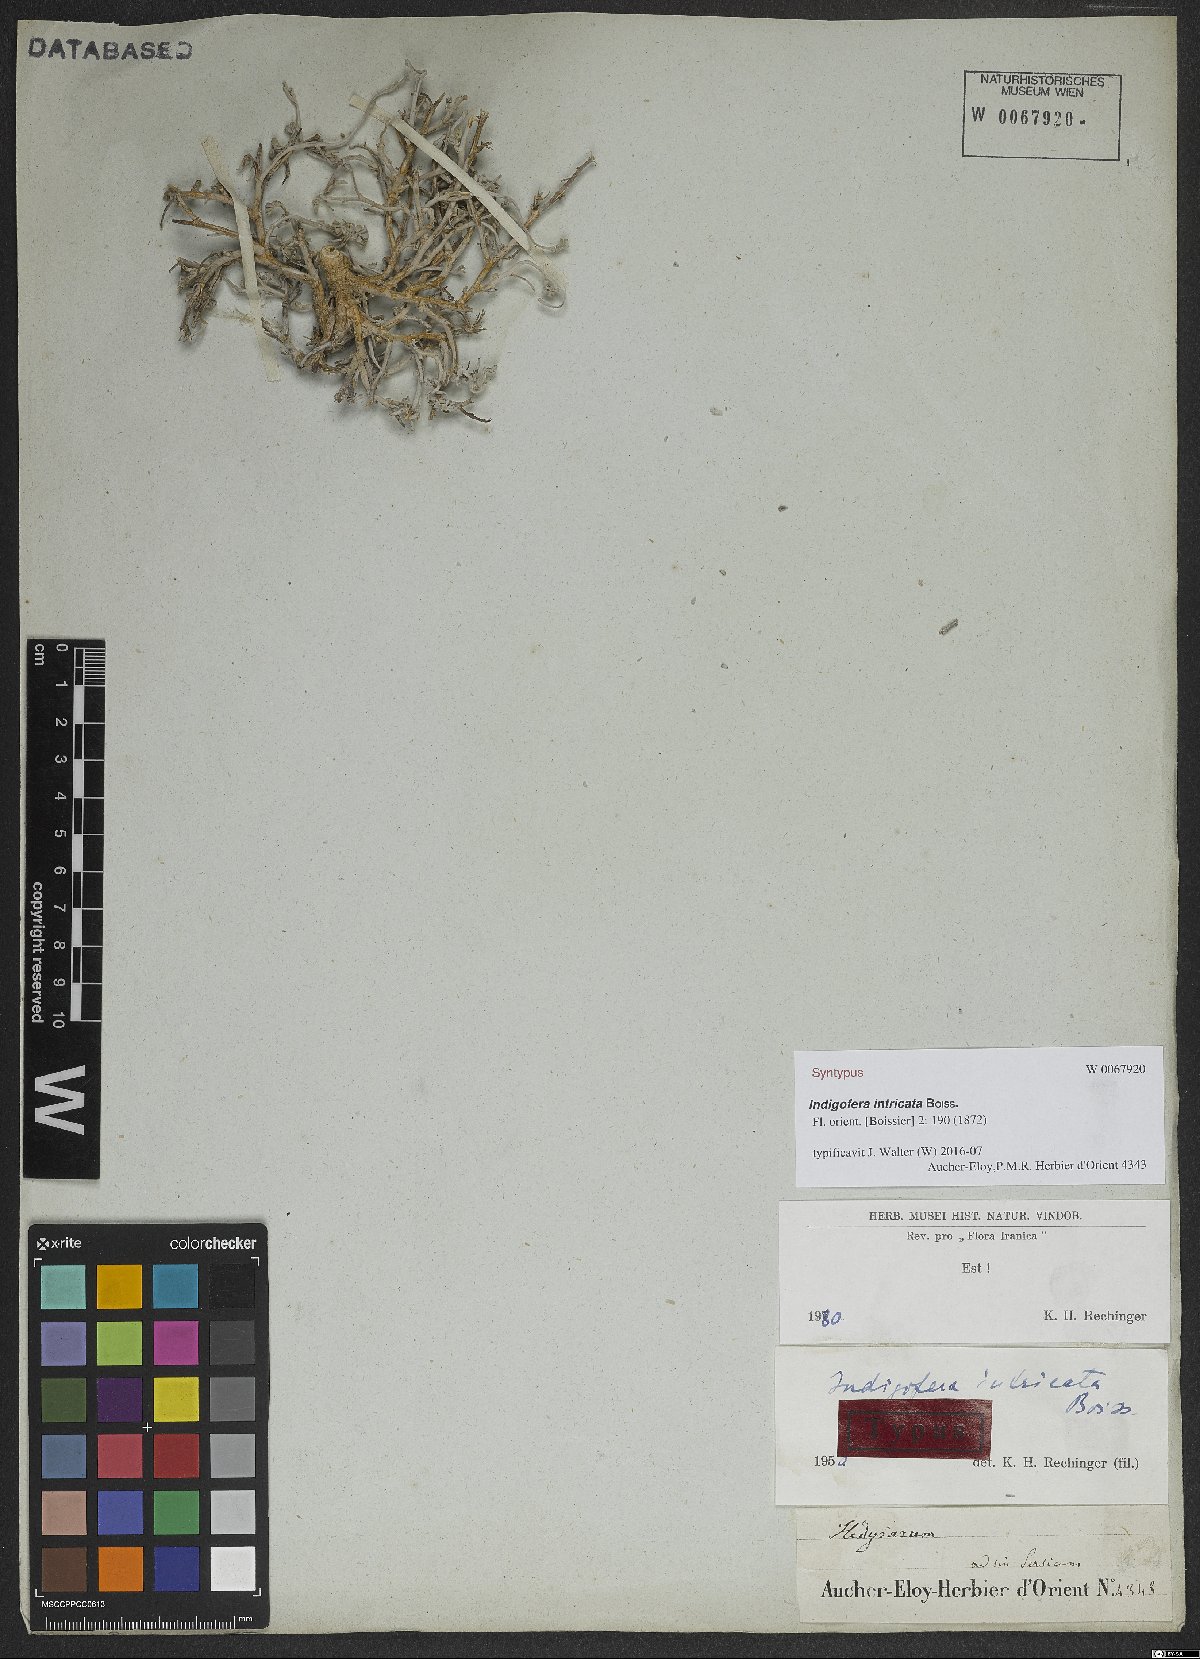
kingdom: Plantae
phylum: Tracheophyta
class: Magnoliopsida
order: Fabales
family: Fabaceae
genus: Indigofera
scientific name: Indigofera intricata
